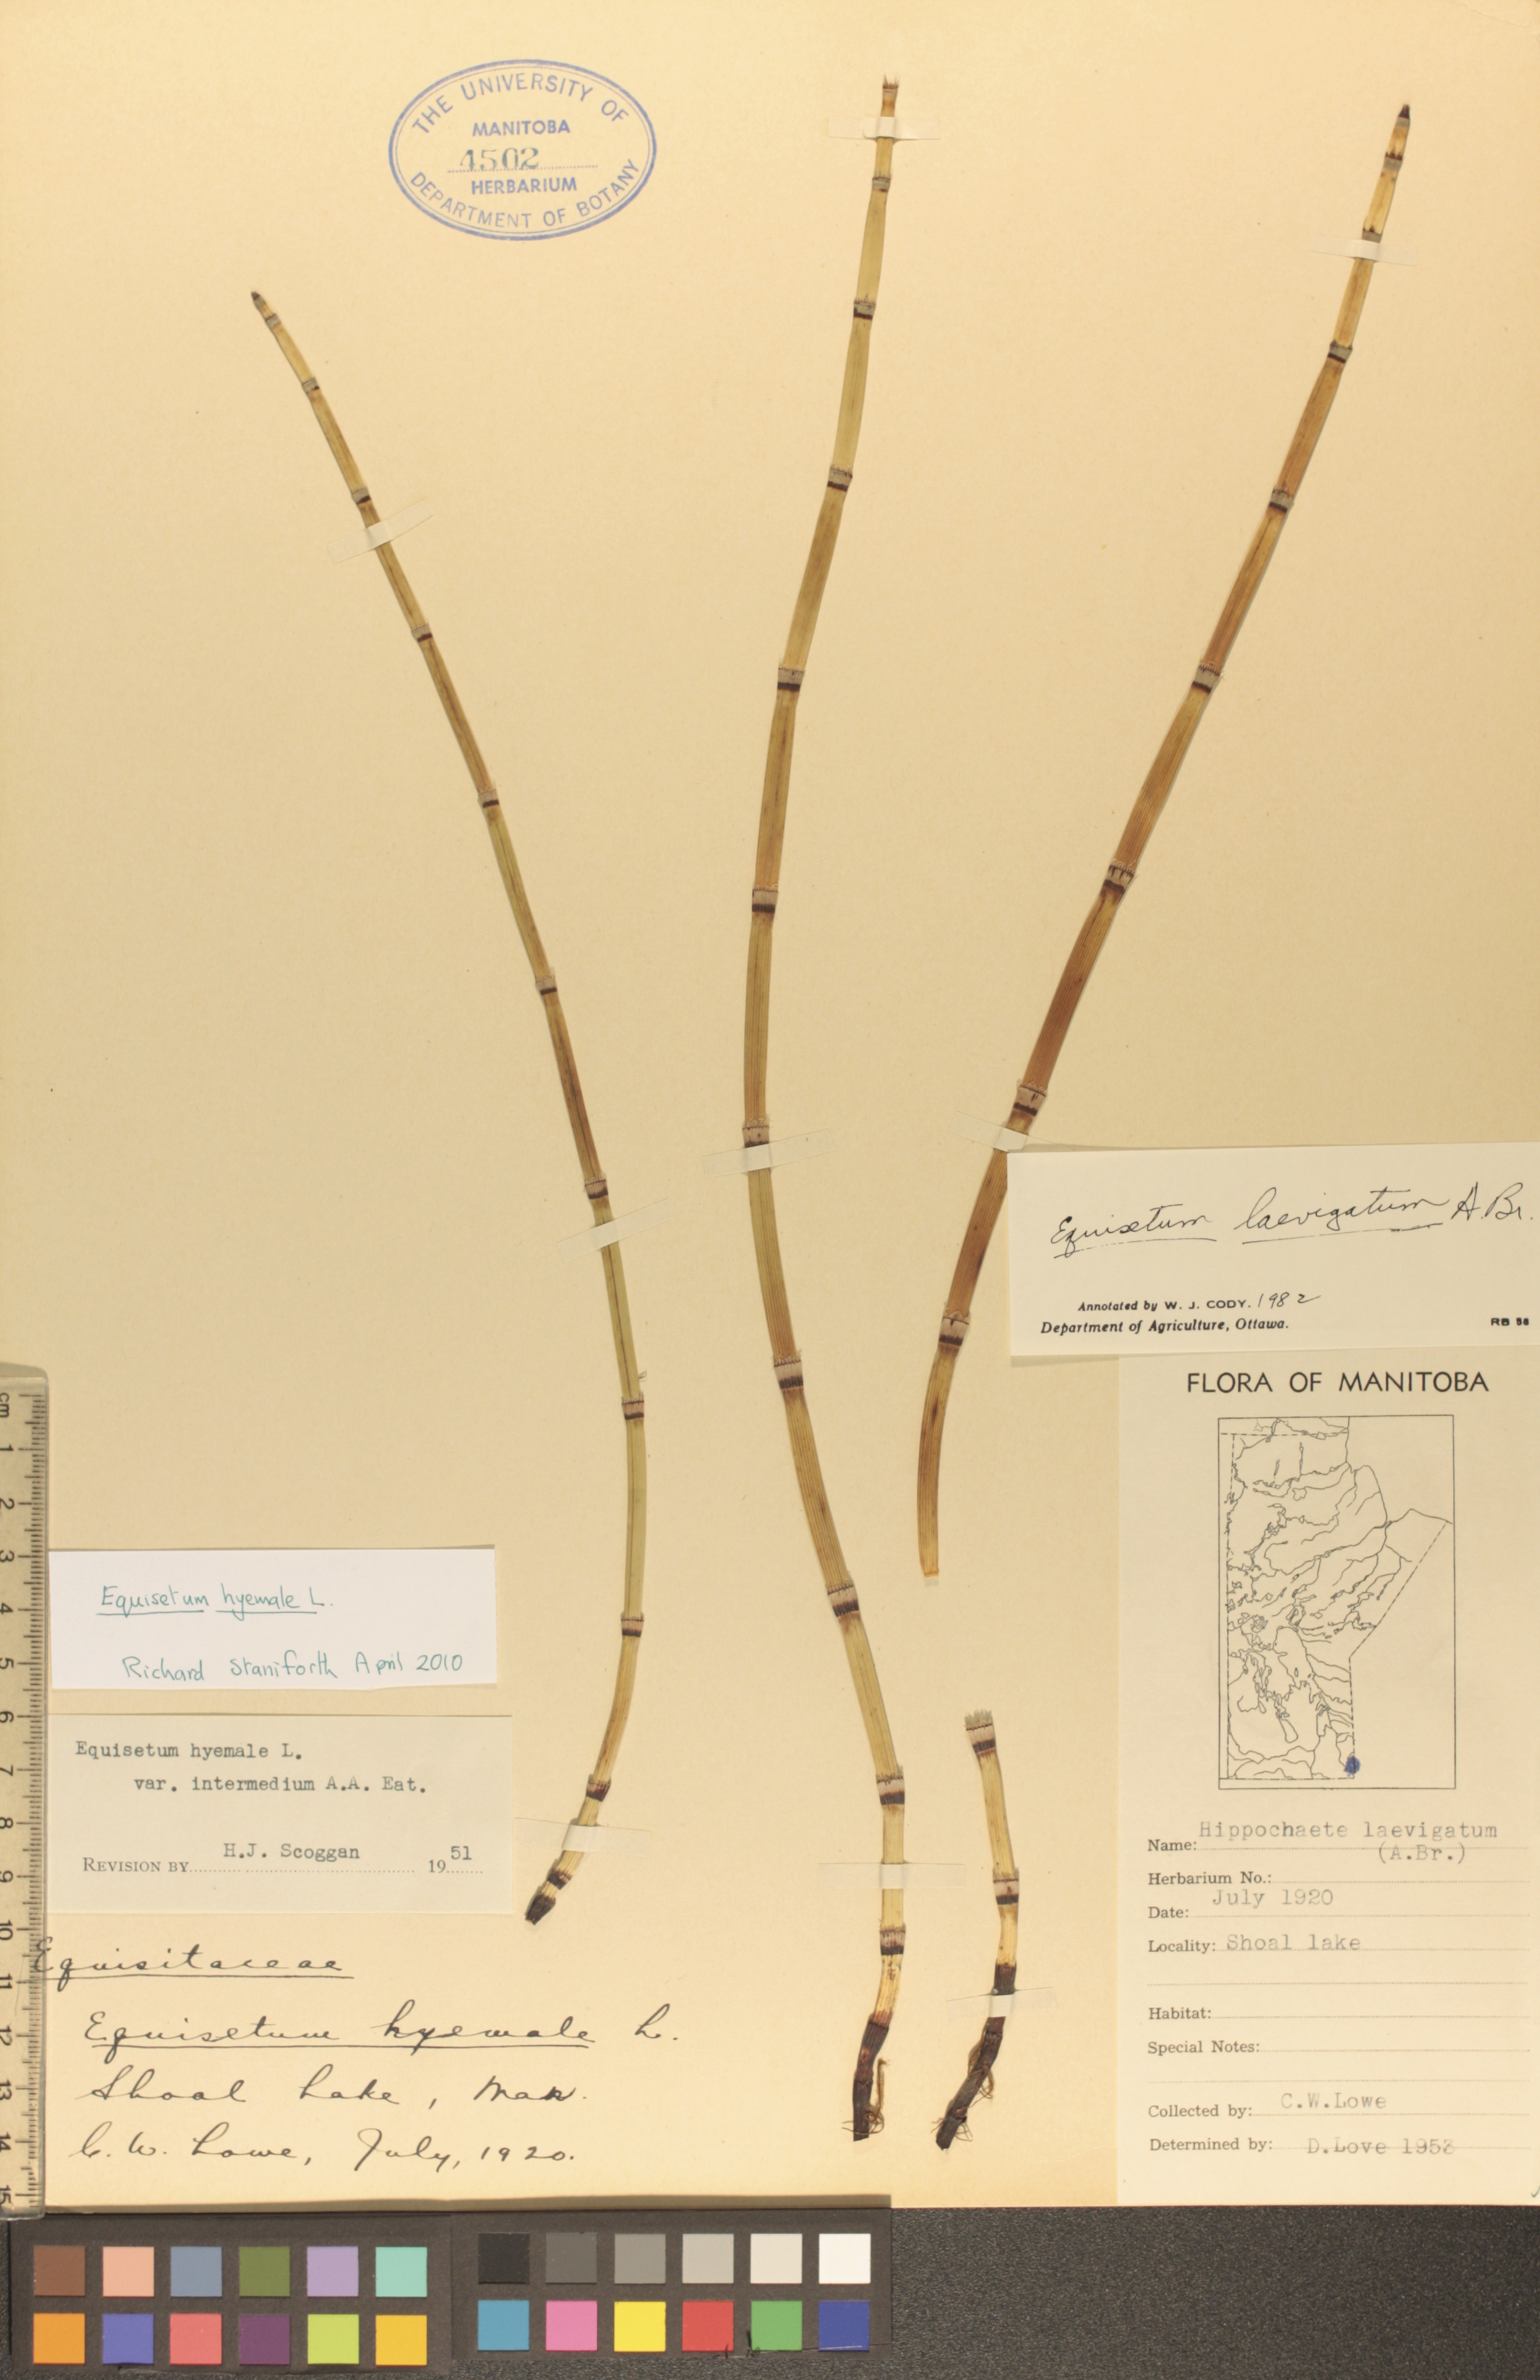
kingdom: Plantae
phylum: Tracheophyta
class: Polypodiopsida
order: Equisetales
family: Equisetaceae
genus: Equisetum
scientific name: Equisetum hyemale
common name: Rough horsetail
